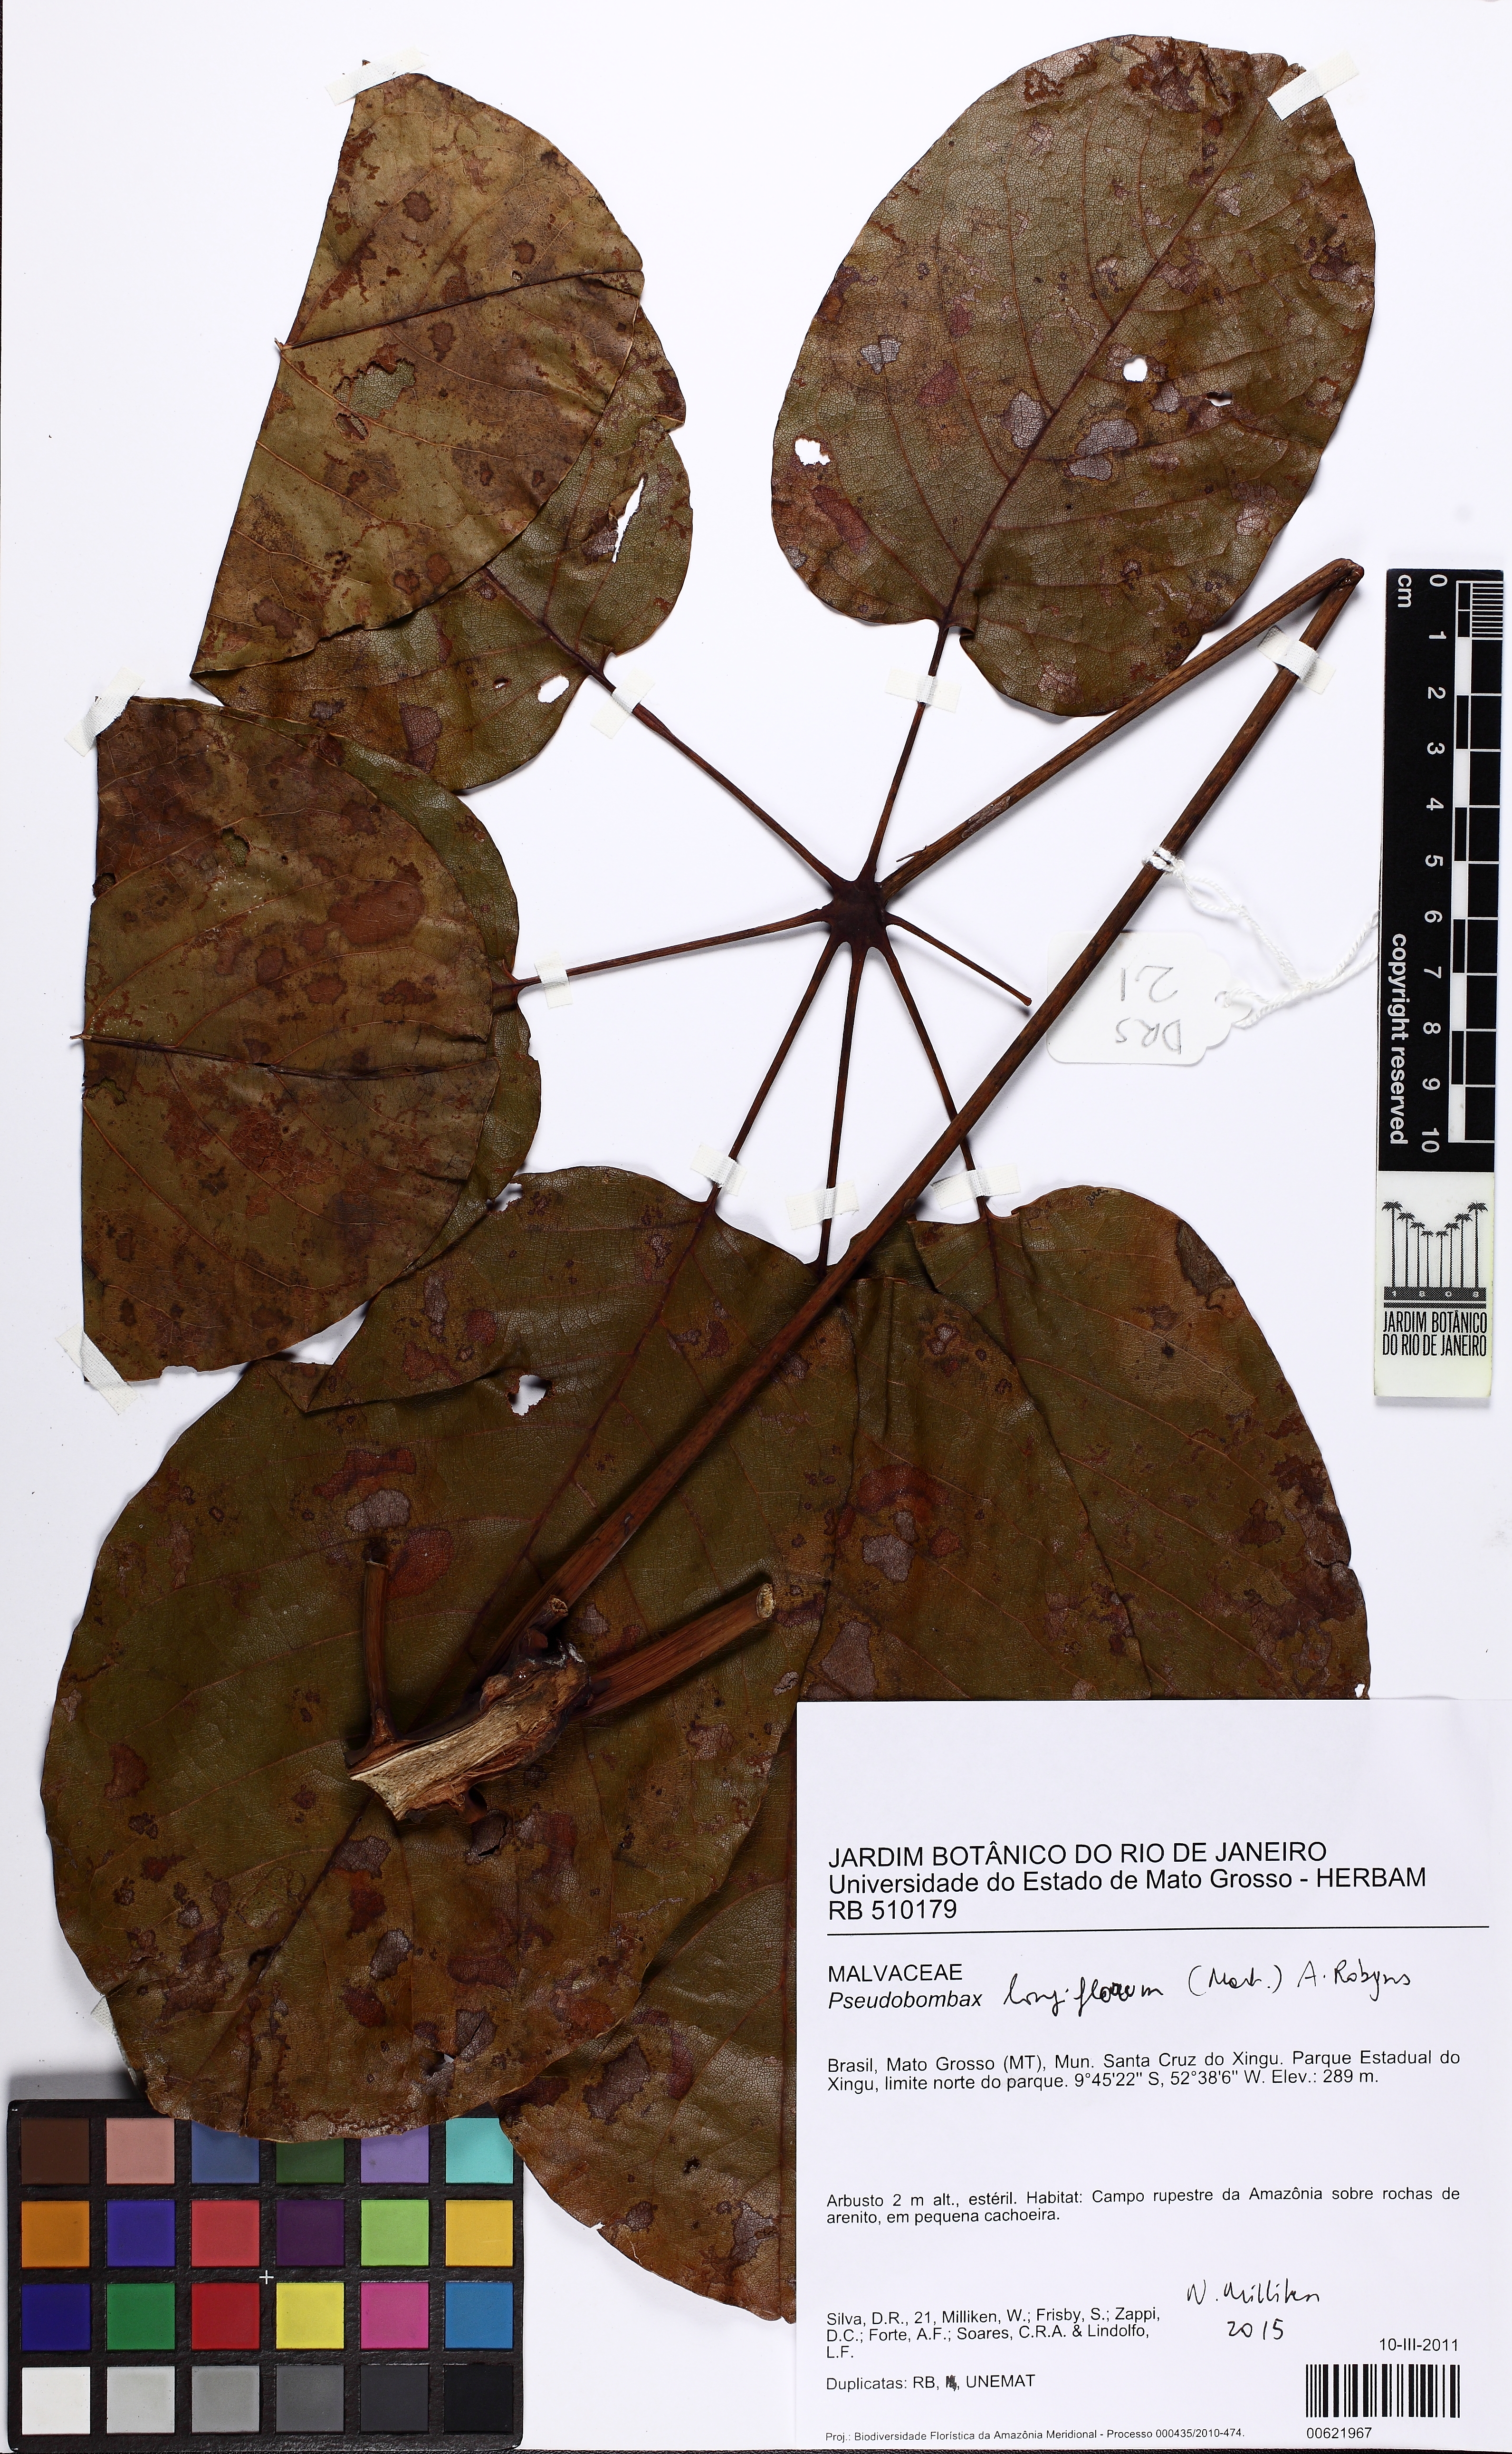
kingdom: Plantae
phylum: Tracheophyta
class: Magnoliopsida
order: Malvales
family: Malvaceae
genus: Pseudobombax
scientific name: Pseudobombax longiflorum
